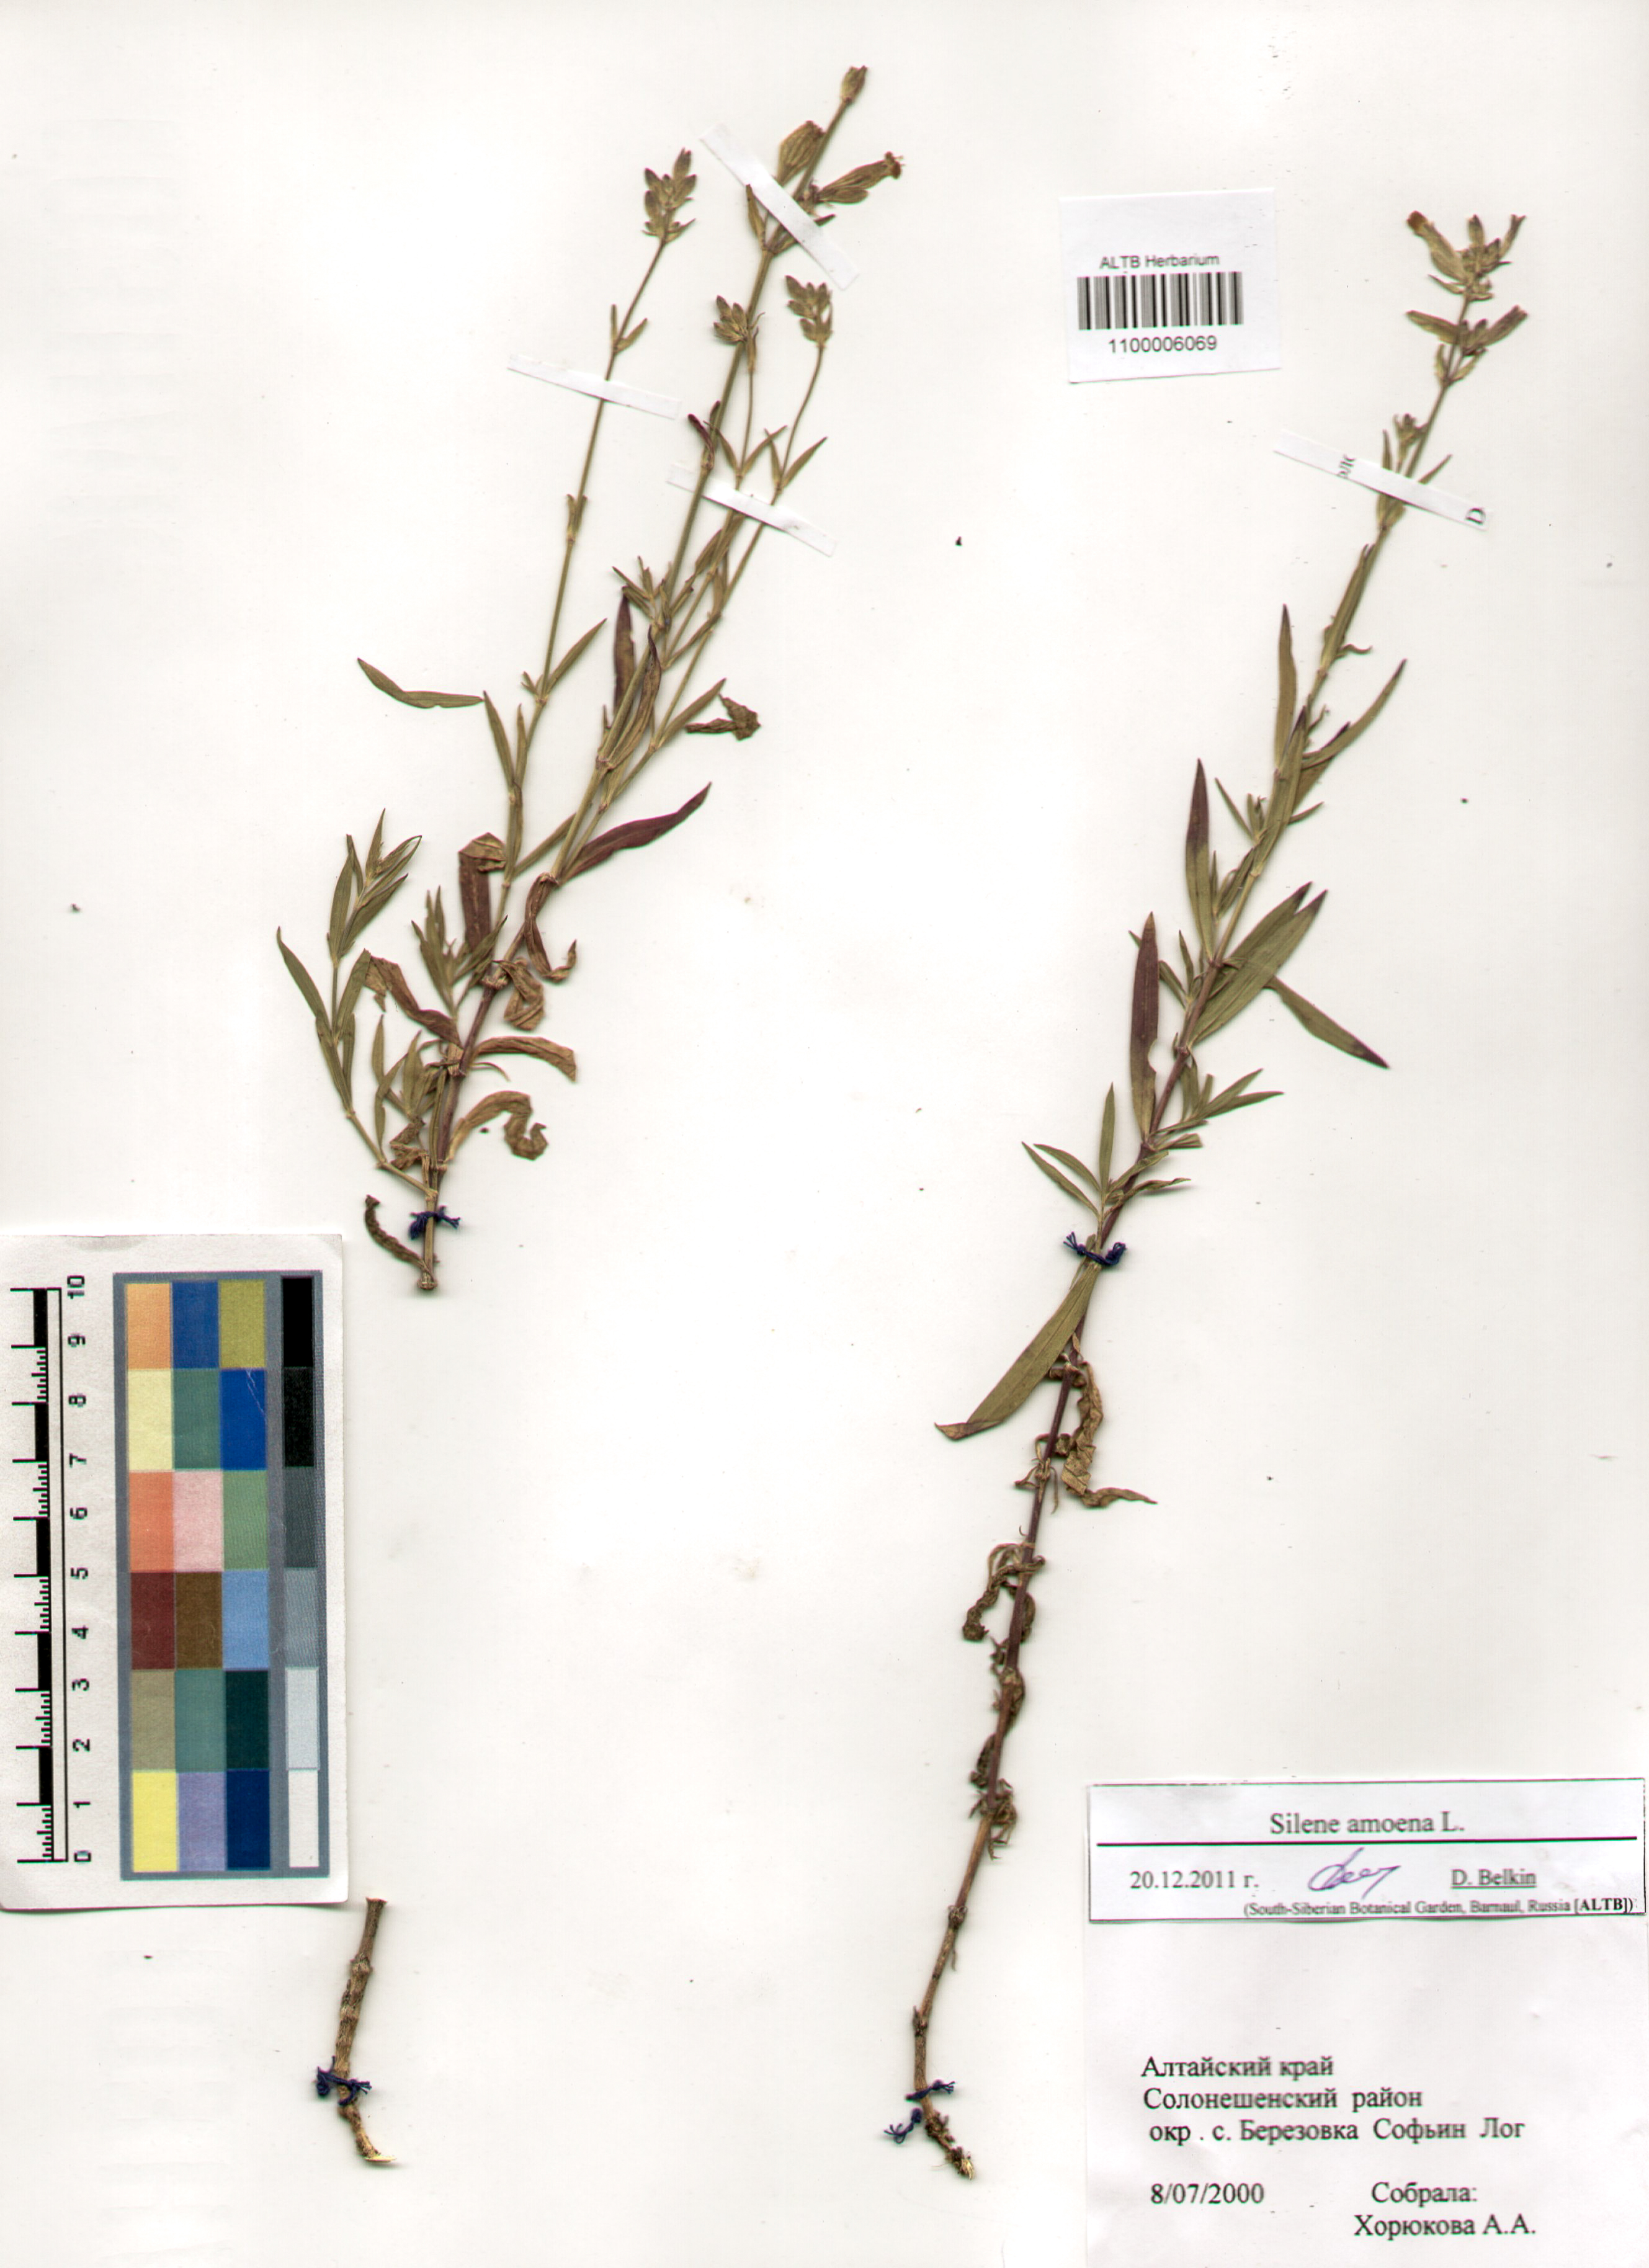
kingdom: Plantae
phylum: Tracheophyta
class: Magnoliopsida
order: Caryophyllales
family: Caryophyllaceae
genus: Silene
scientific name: Silene amoena
